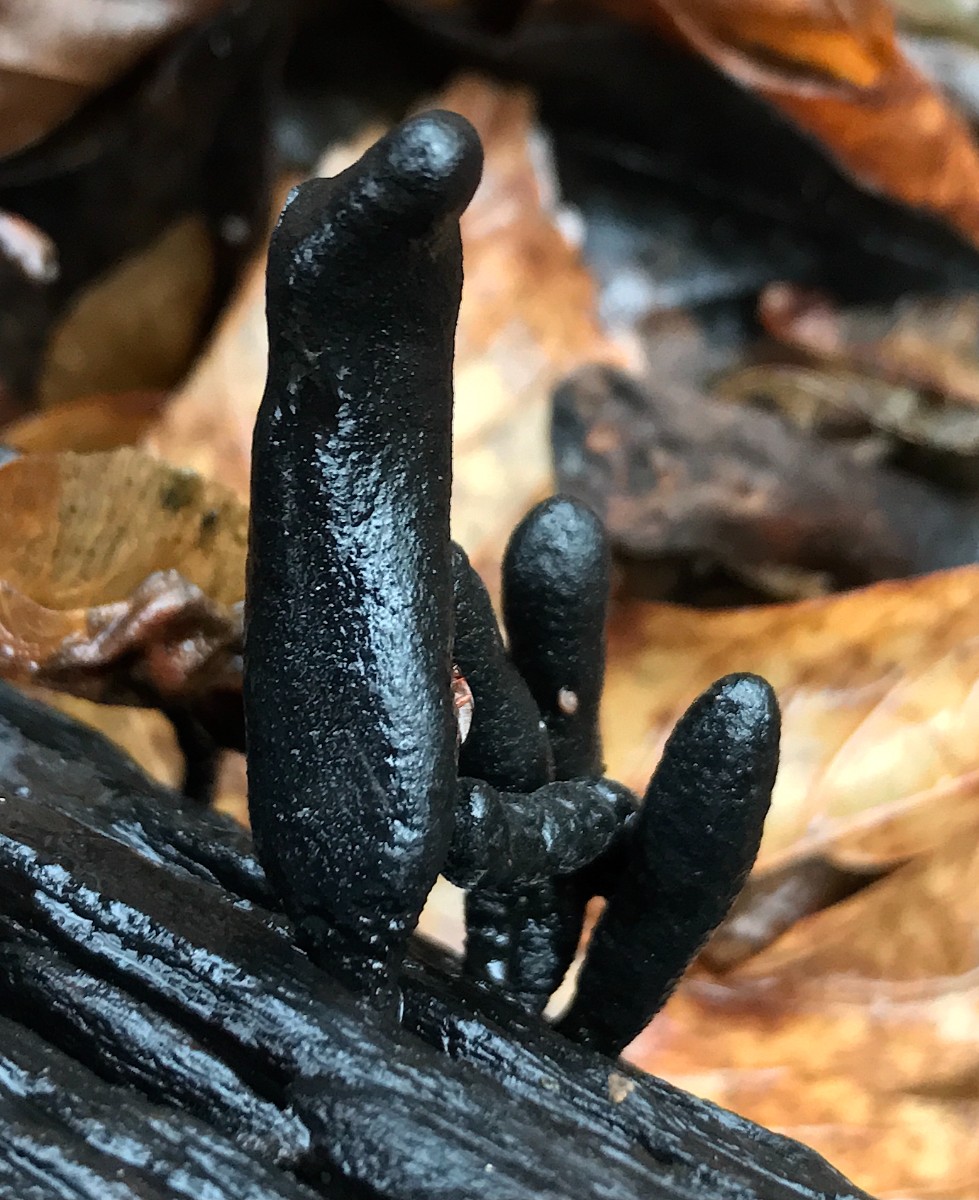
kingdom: Fungi
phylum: Ascomycota
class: Sordariomycetes
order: Xylariales
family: Xylariaceae
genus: Xylaria
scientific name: Xylaria longipes
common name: slank stødsvamp
